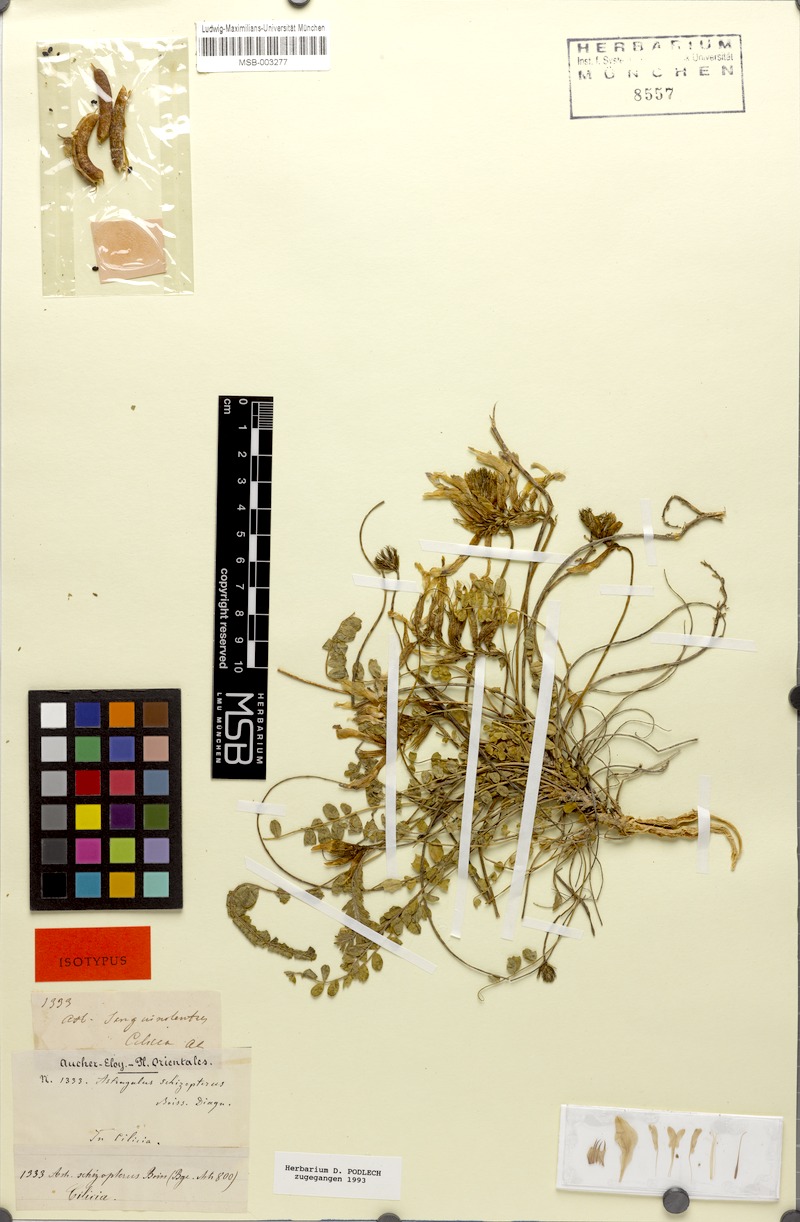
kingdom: Plantae
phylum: Tracheophyta
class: Magnoliopsida
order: Fabales
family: Fabaceae
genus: Astragalus
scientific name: Astragalus schizopterus
